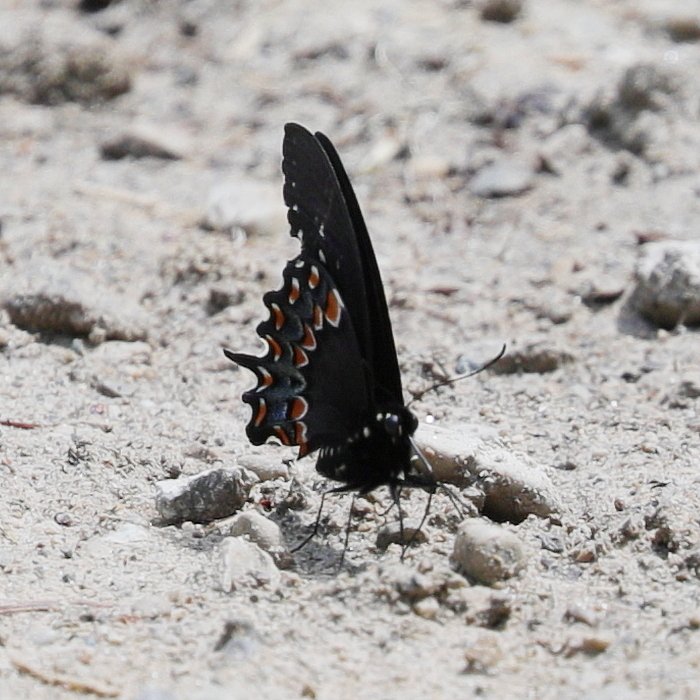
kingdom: Animalia
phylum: Arthropoda
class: Insecta
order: Lepidoptera
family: Papilionidae
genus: Pterourus
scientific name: Pterourus troilus
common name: Spicebush Swallowtail
